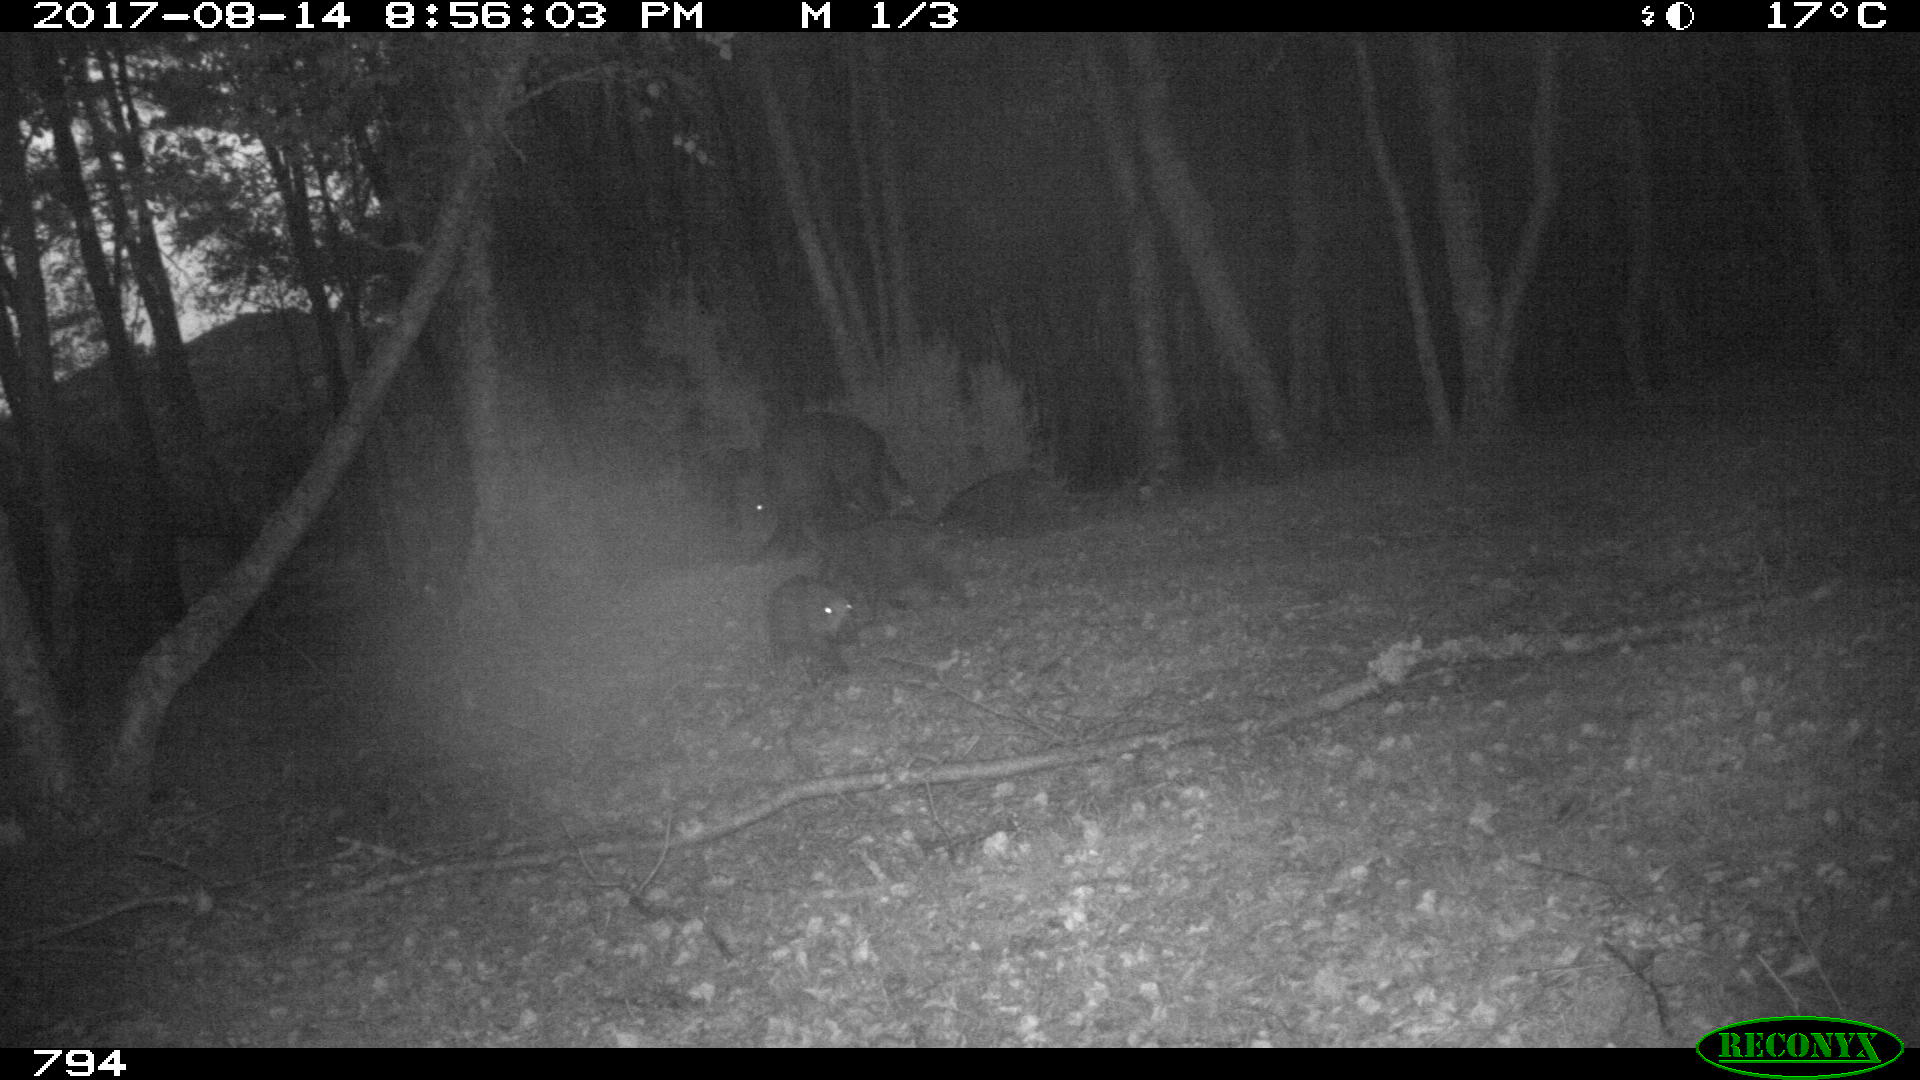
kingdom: Animalia
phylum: Chordata
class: Mammalia
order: Artiodactyla
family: Suidae
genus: Sus
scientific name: Sus scrofa
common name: Wild boar
